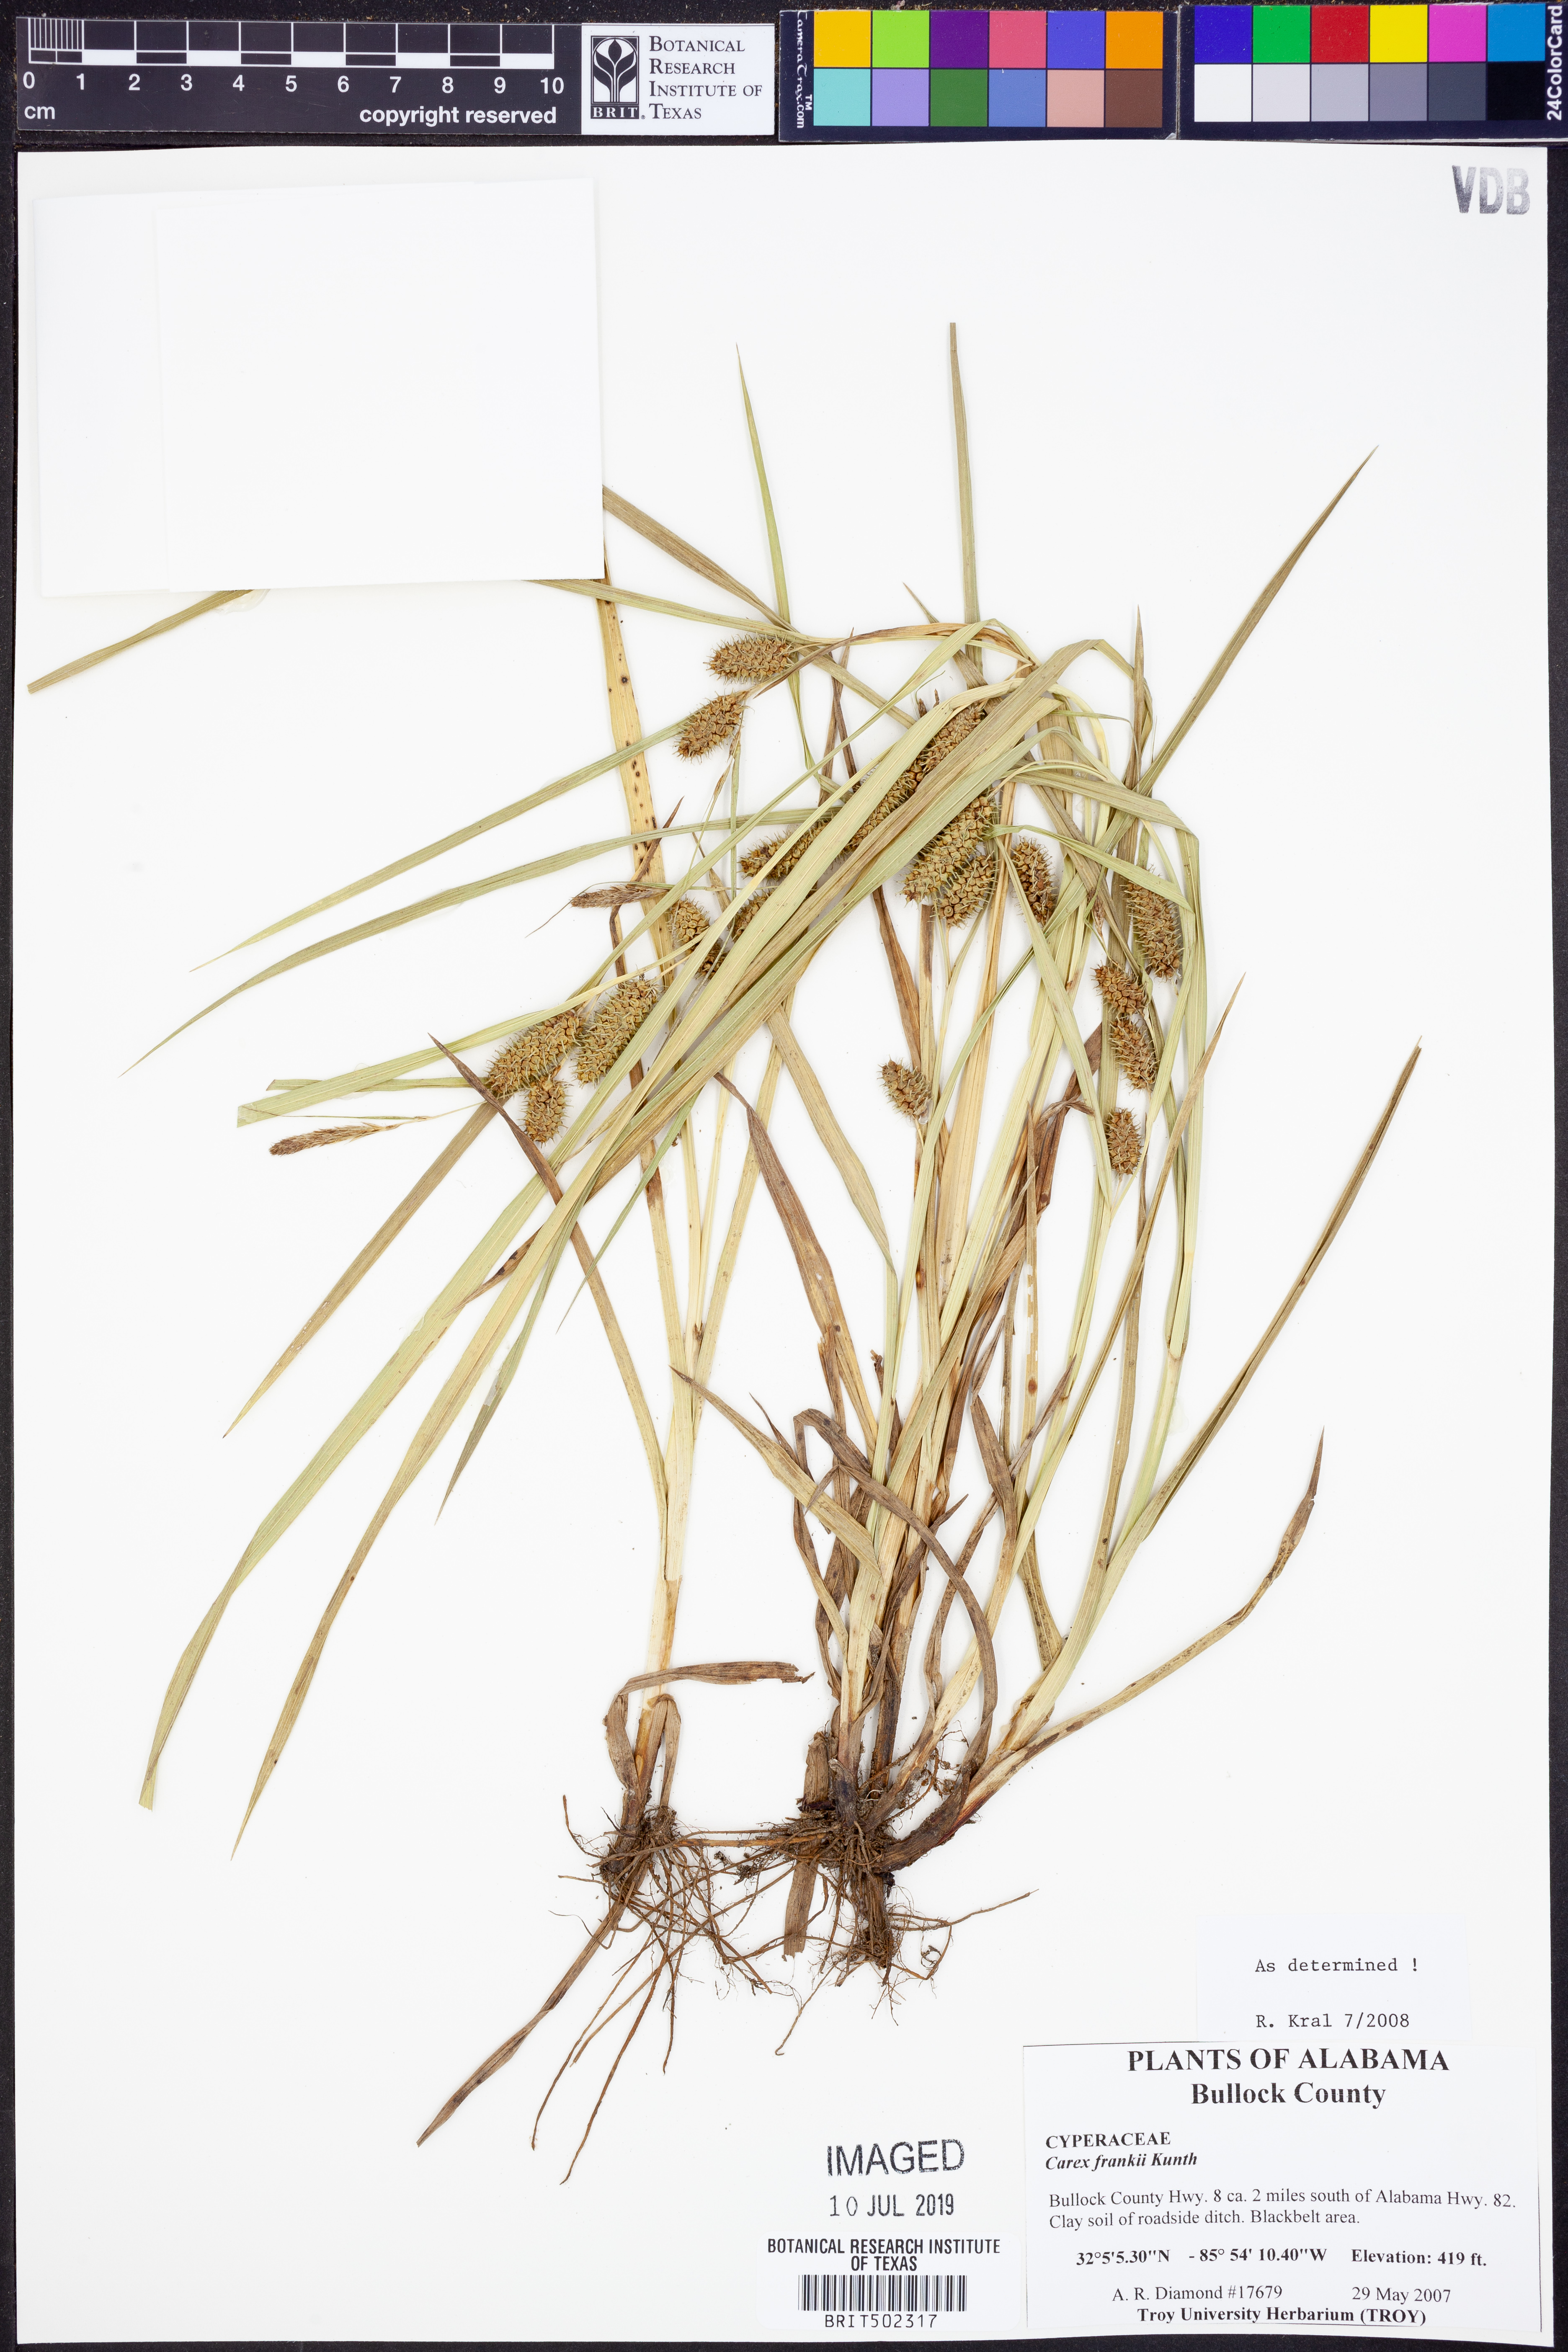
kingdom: Plantae
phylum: Tracheophyta
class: Liliopsida
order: Poales
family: Cyperaceae
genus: Carex
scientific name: Carex frankii
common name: Frank's sedge
